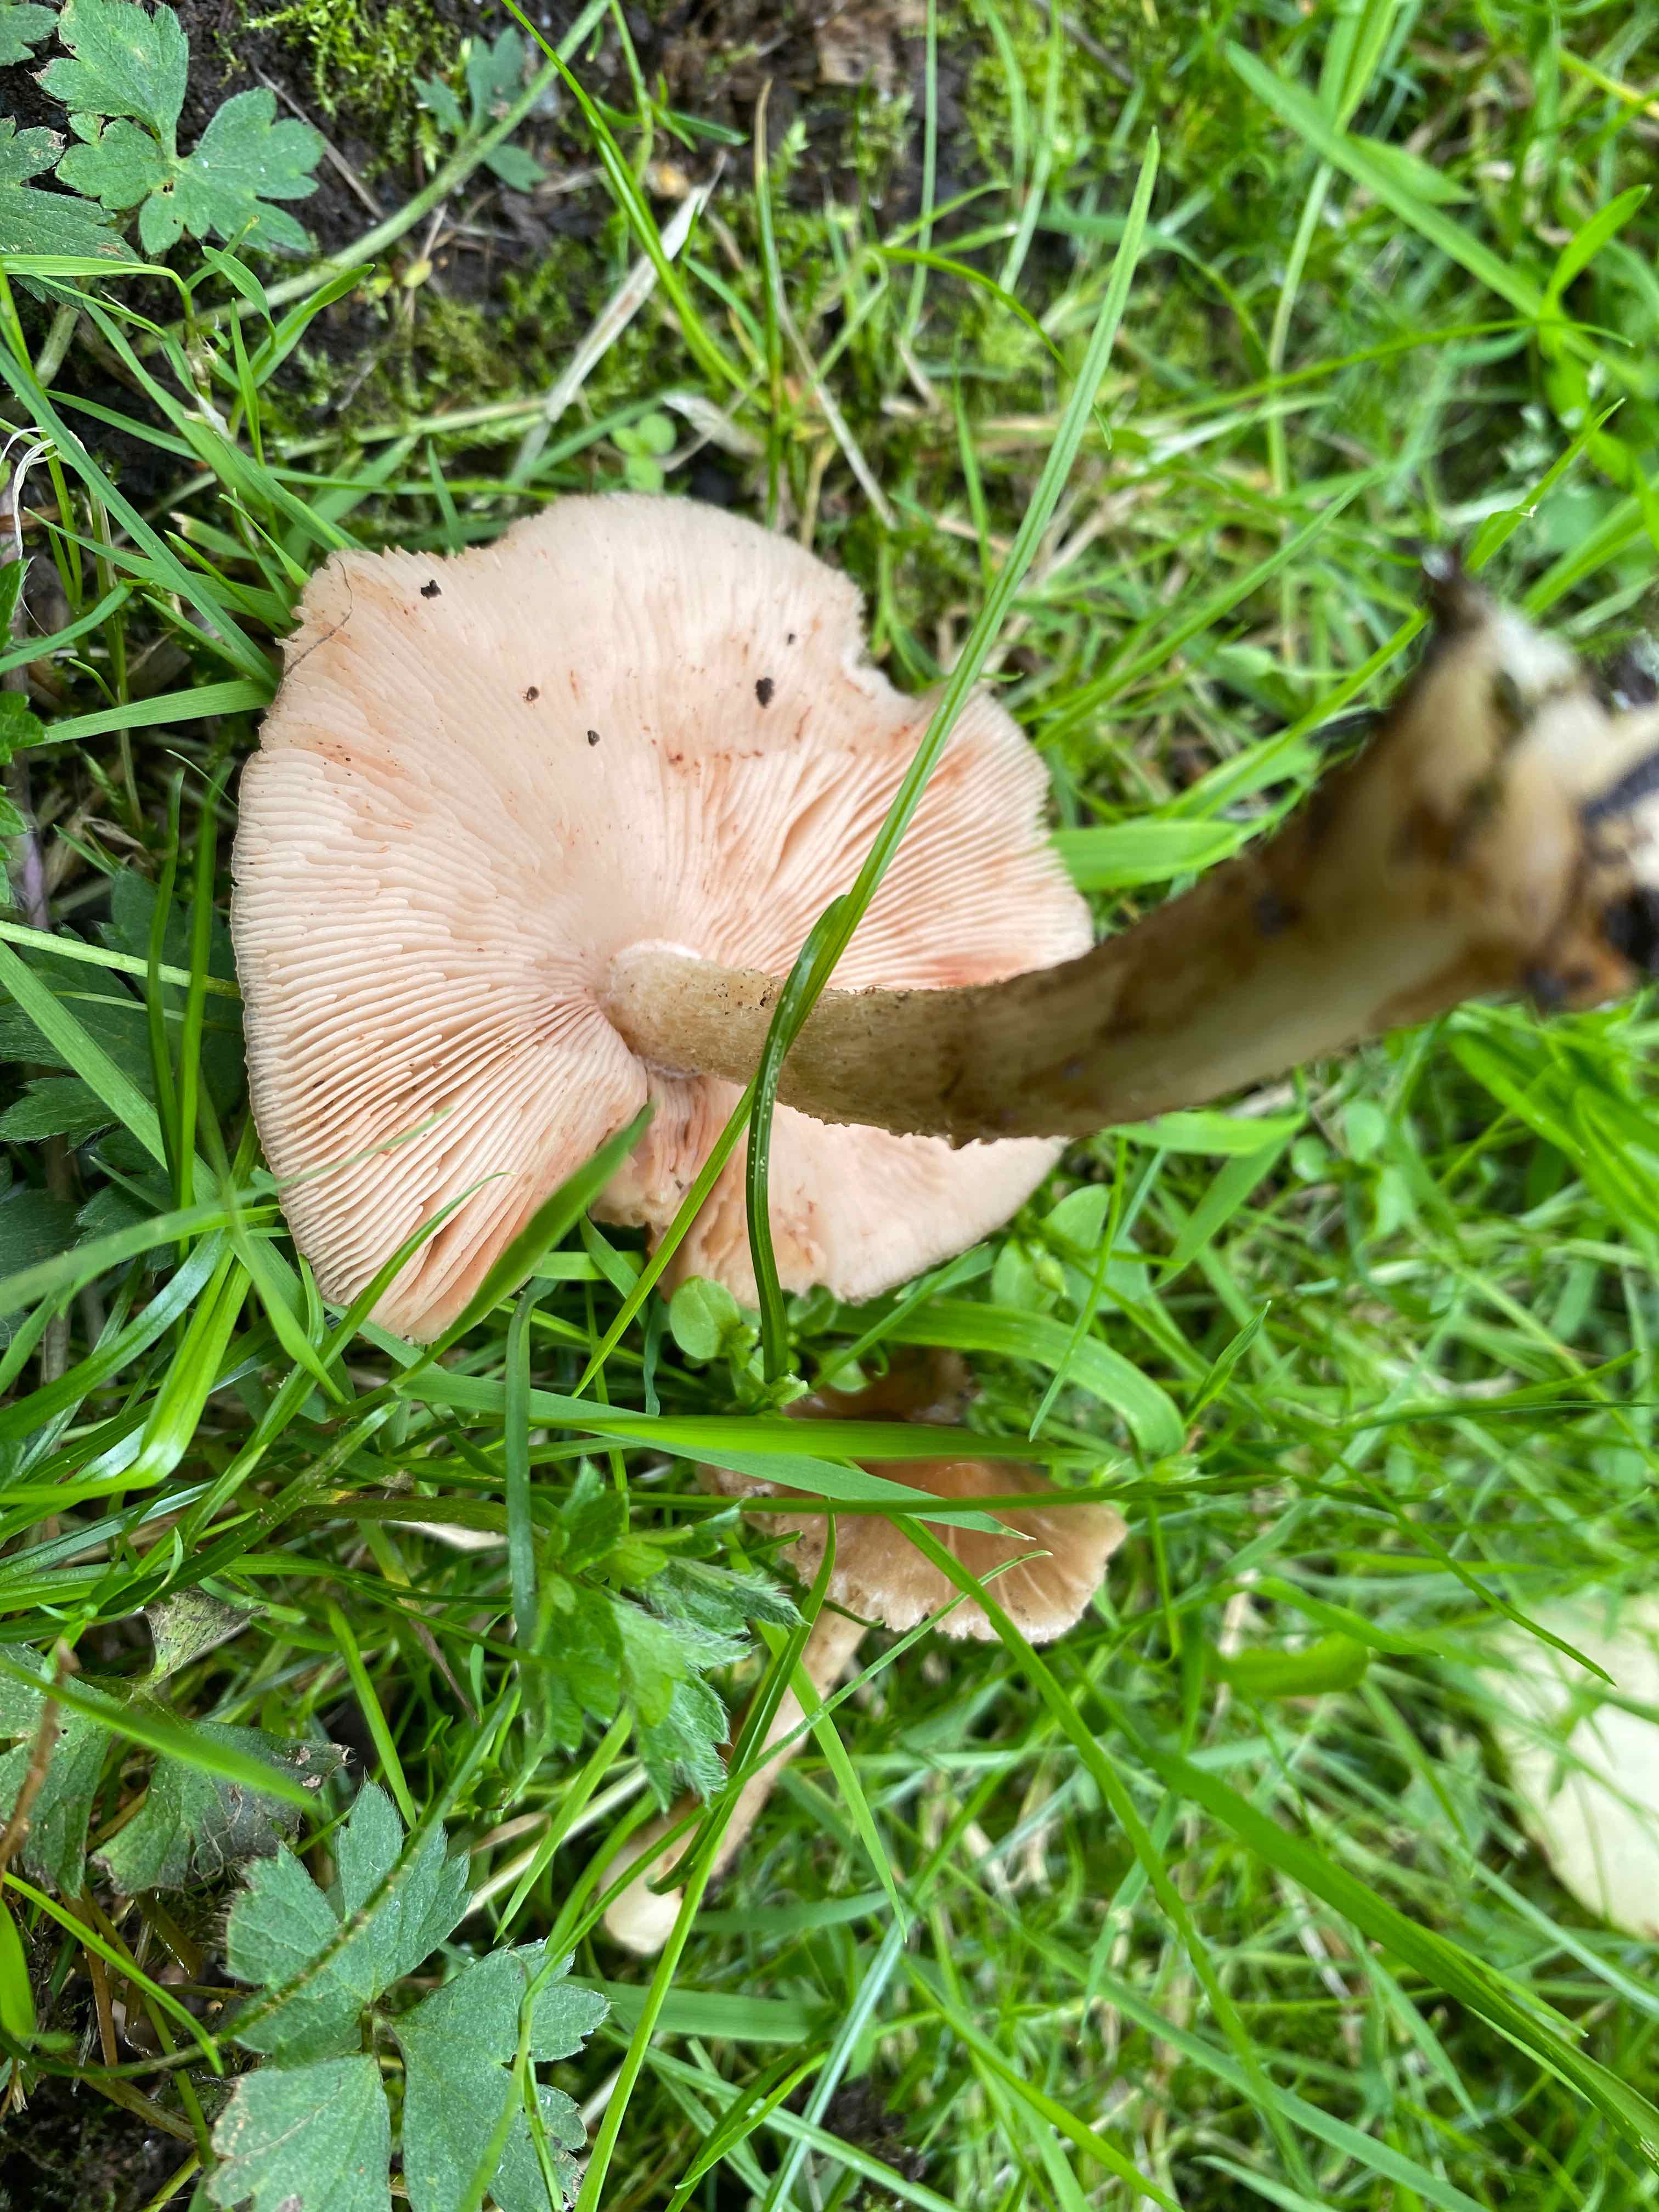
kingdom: Fungi
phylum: Basidiomycota
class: Agaricomycetes
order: Agaricales
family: Pluteaceae
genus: Pluteus
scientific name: Pluteus cervinus
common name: sodfarvet skærmhat
